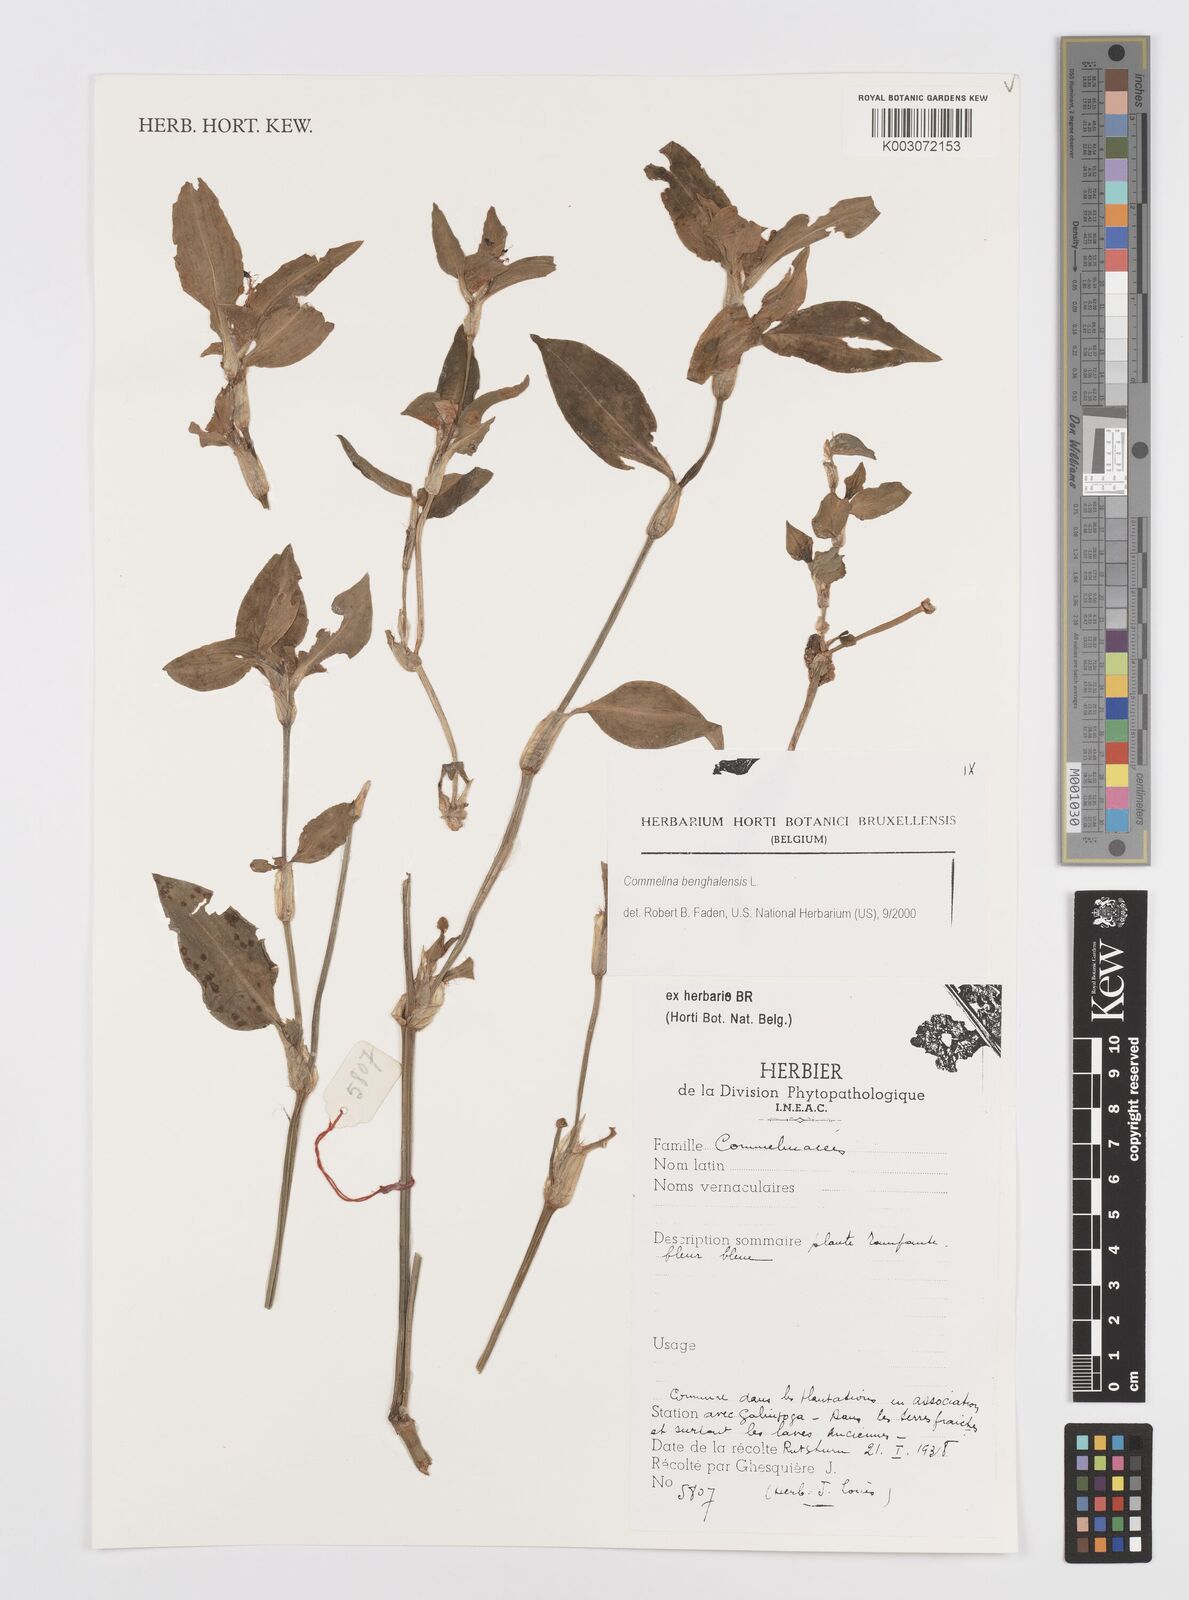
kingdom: Plantae
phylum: Tracheophyta
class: Liliopsida
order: Commelinales
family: Commelinaceae
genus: Commelina
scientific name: Commelina benghalensis
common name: Jio
